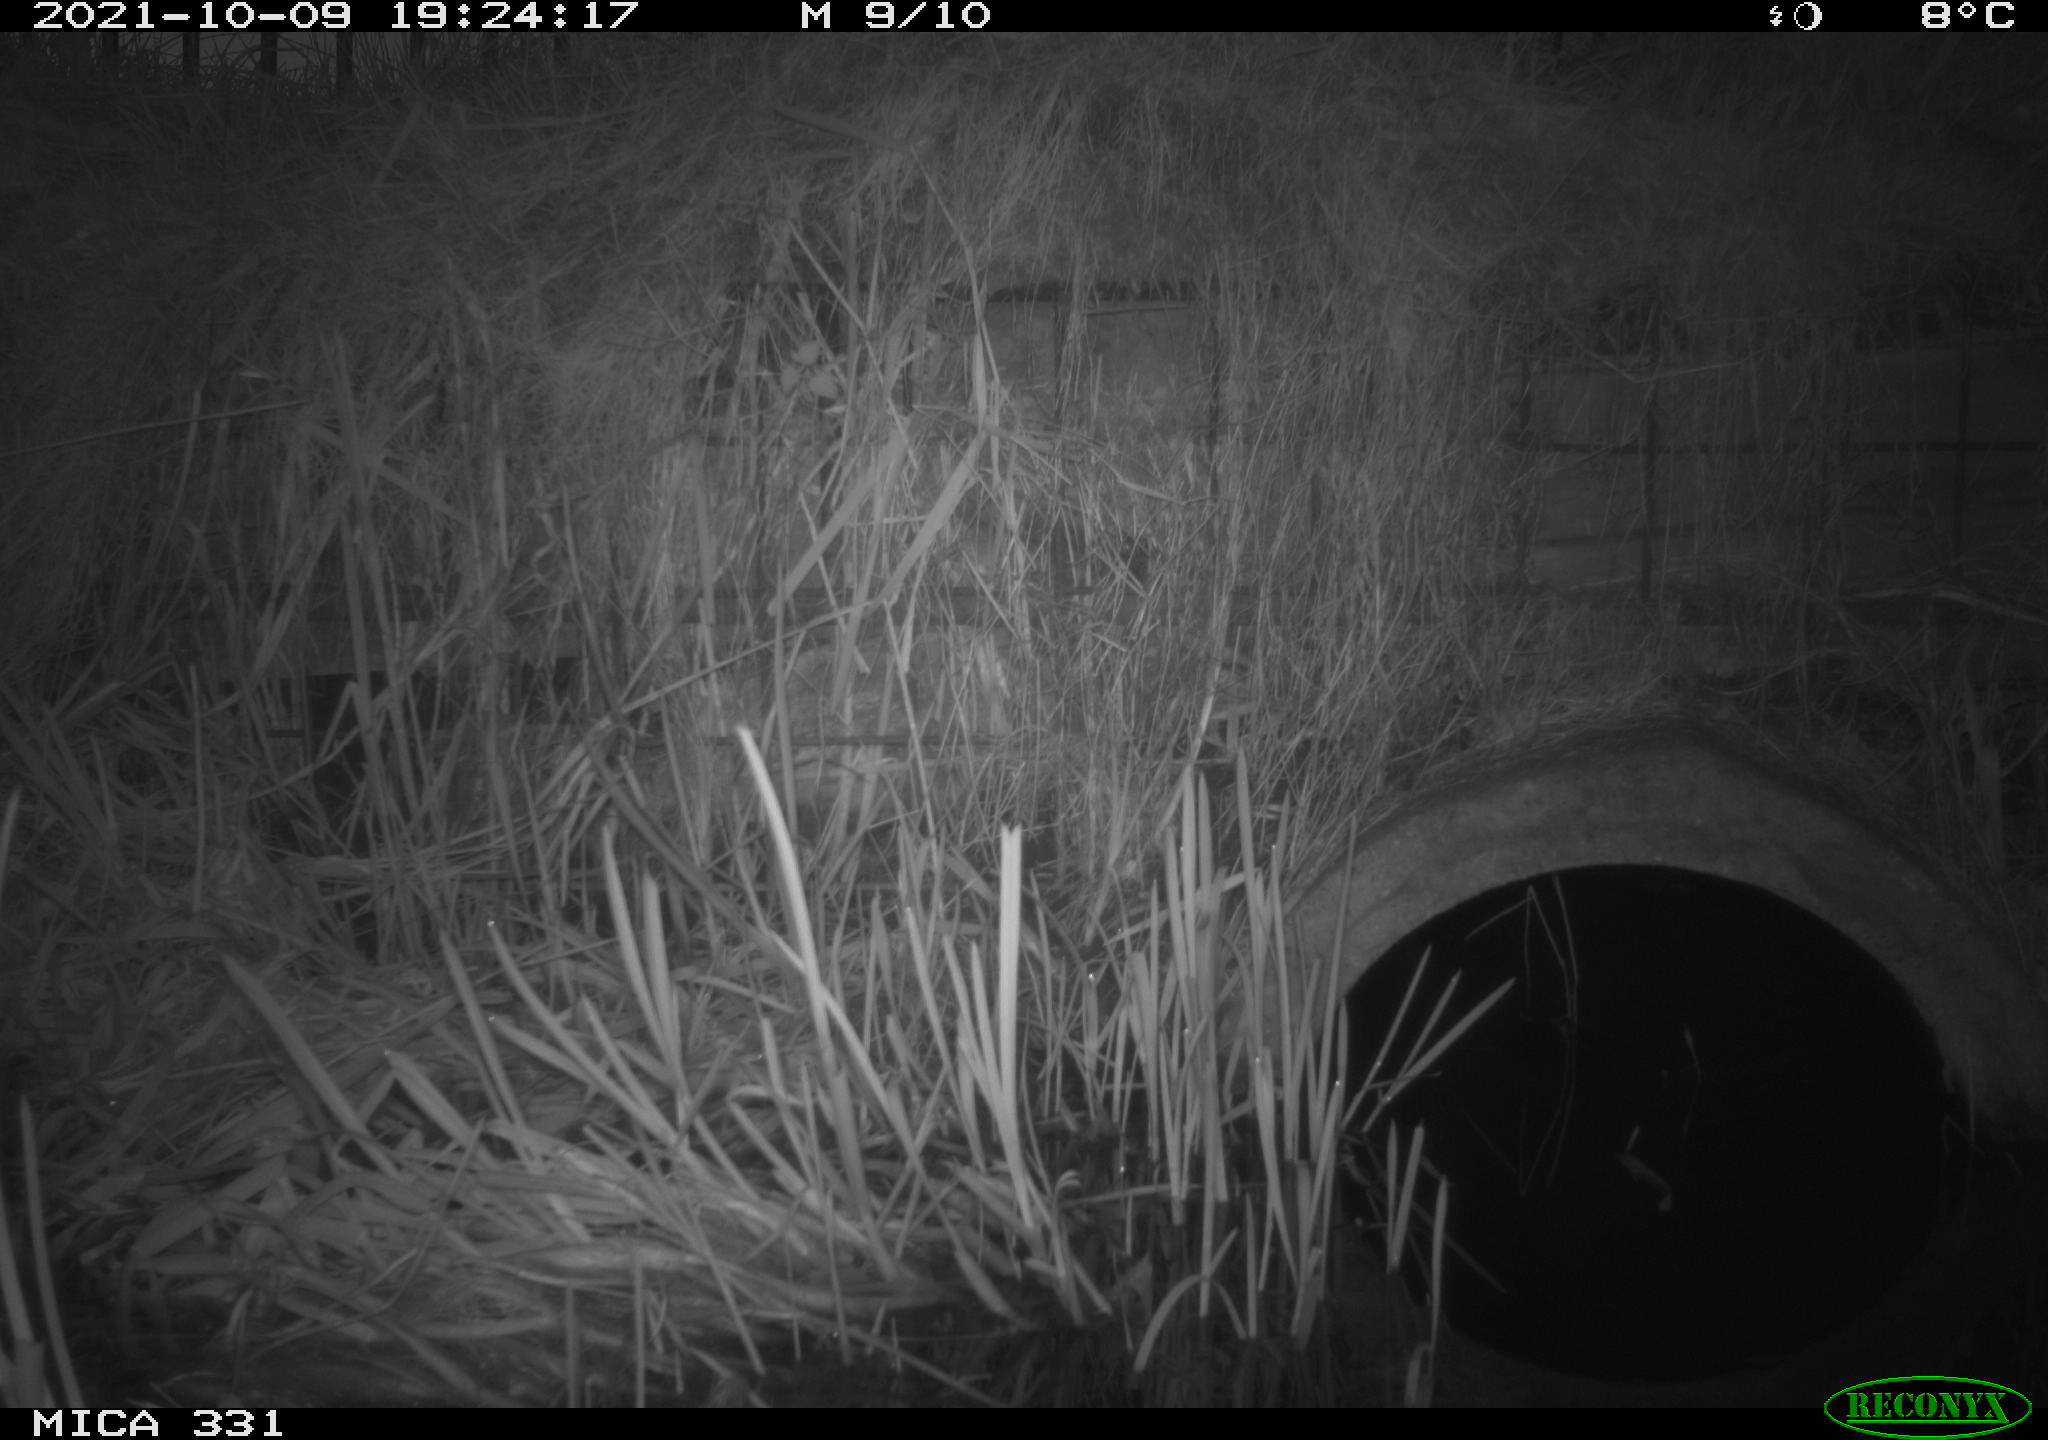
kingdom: Animalia
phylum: Chordata
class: Mammalia
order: Rodentia
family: Muridae
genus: Rattus
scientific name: Rattus norvegicus
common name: Brown rat
